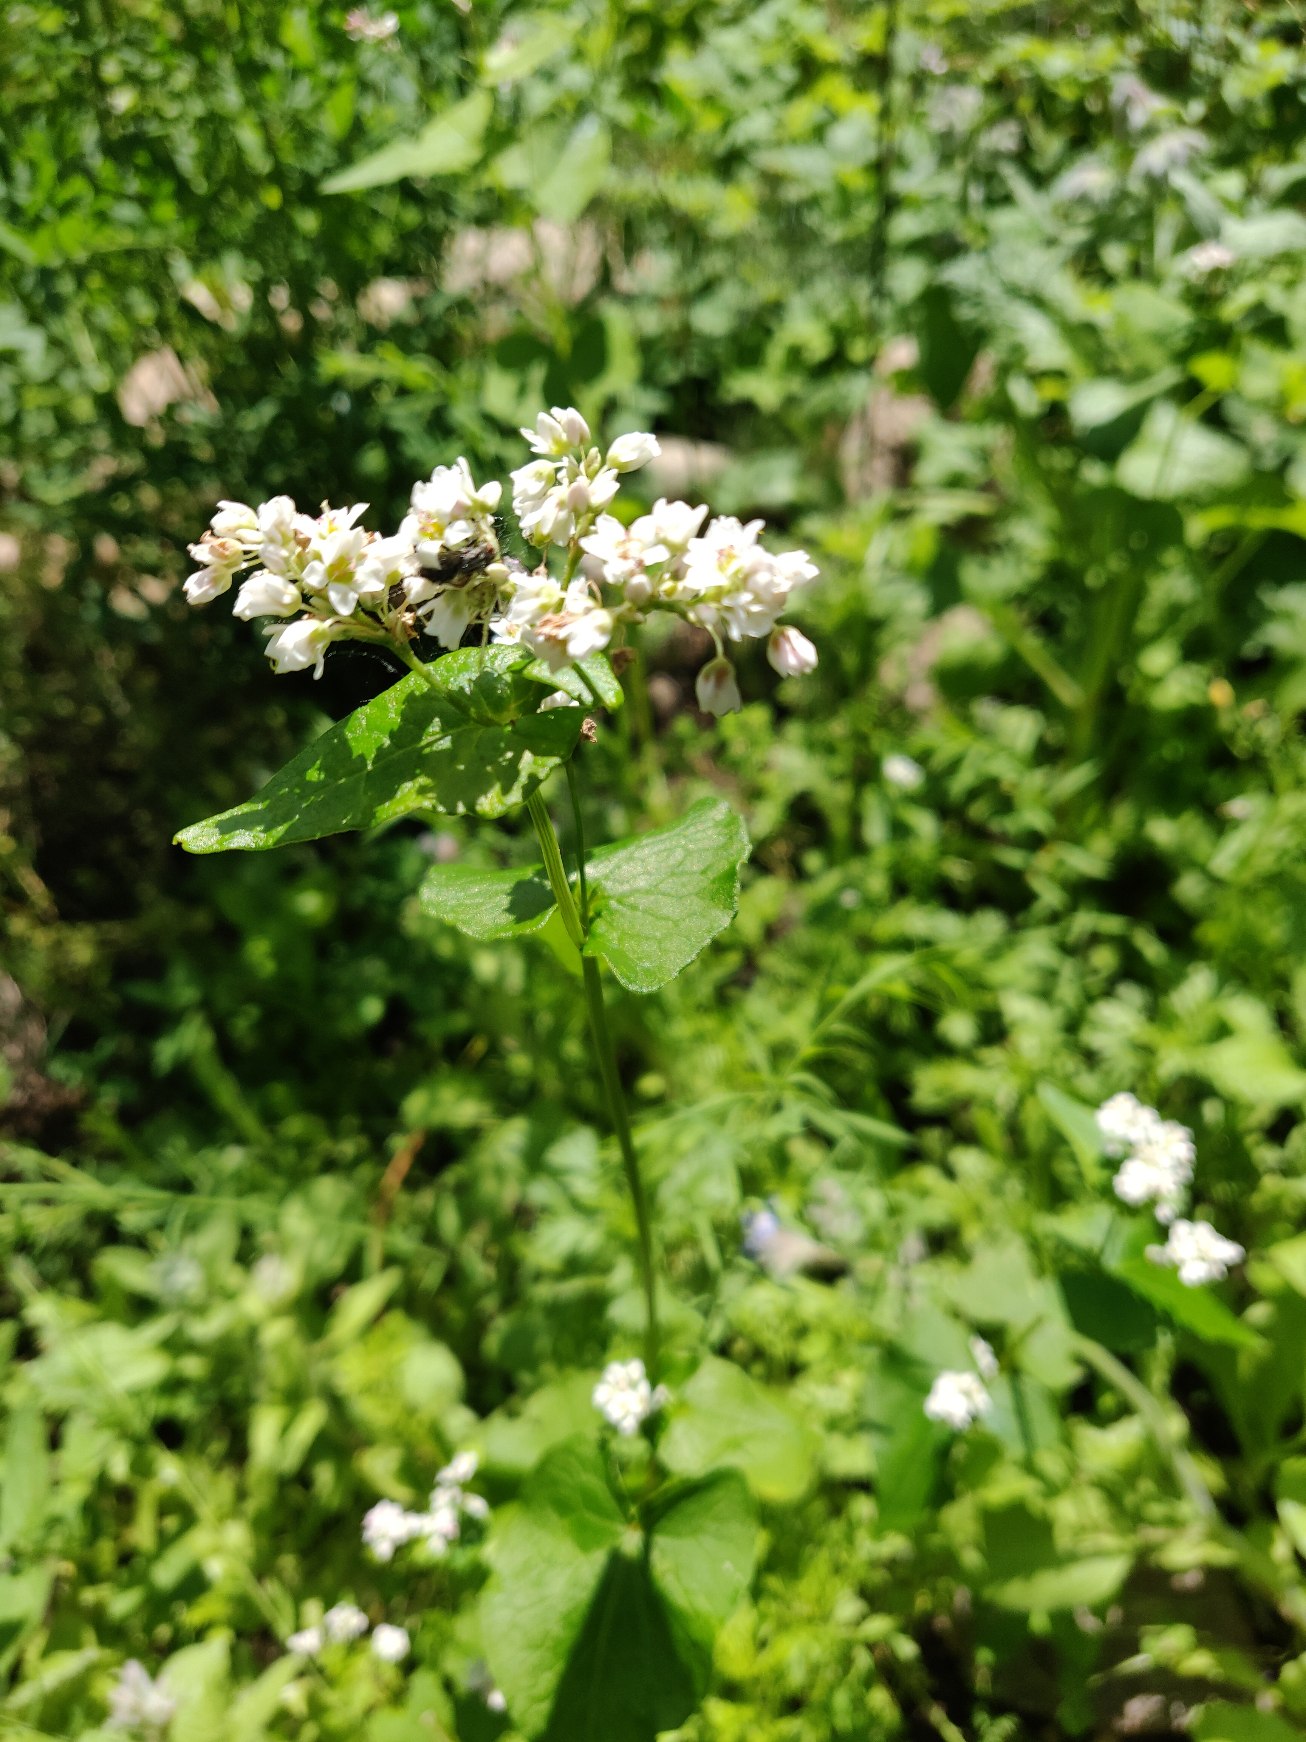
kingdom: Plantae
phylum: Tracheophyta
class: Magnoliopsida
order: Caryophyllales
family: Polygonaceae
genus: Fagopyrum
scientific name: Fagopyrum esculentum
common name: Almindelig boghvede
